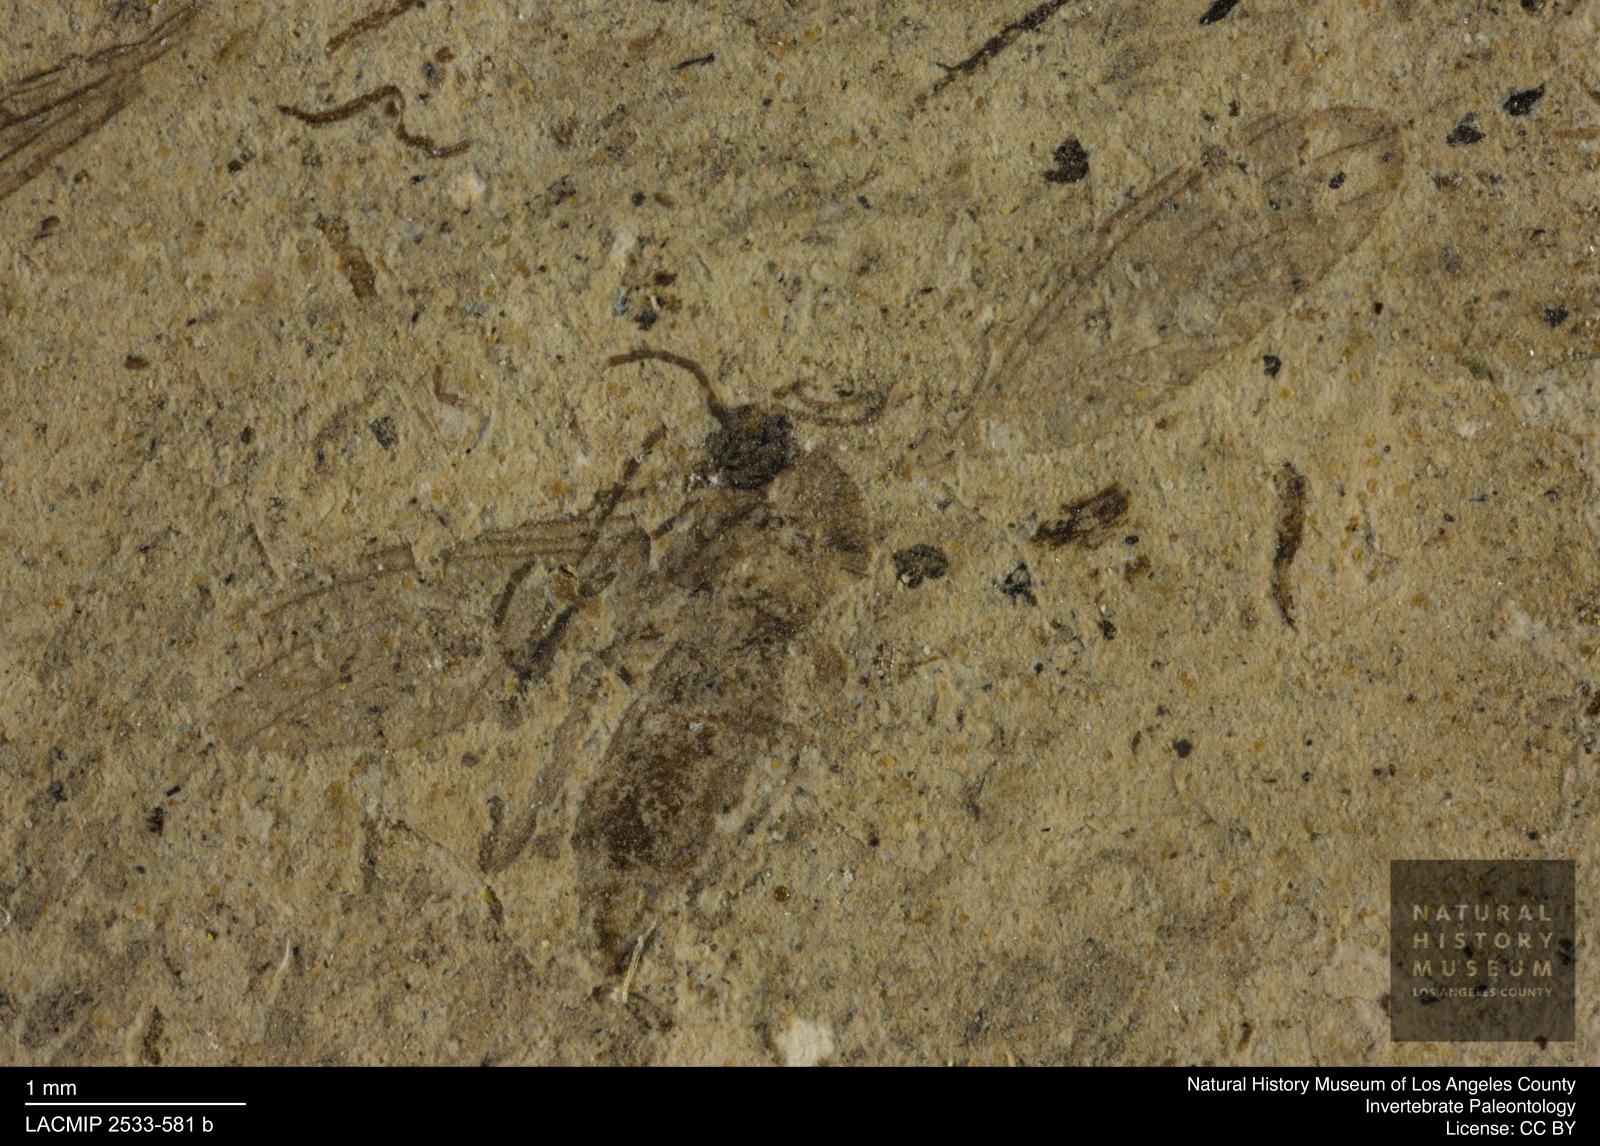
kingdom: Animalia
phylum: Arthropoda
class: Insecta
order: Diptera
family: Sciaridae
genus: Sciara
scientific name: Sciara gracilenta
